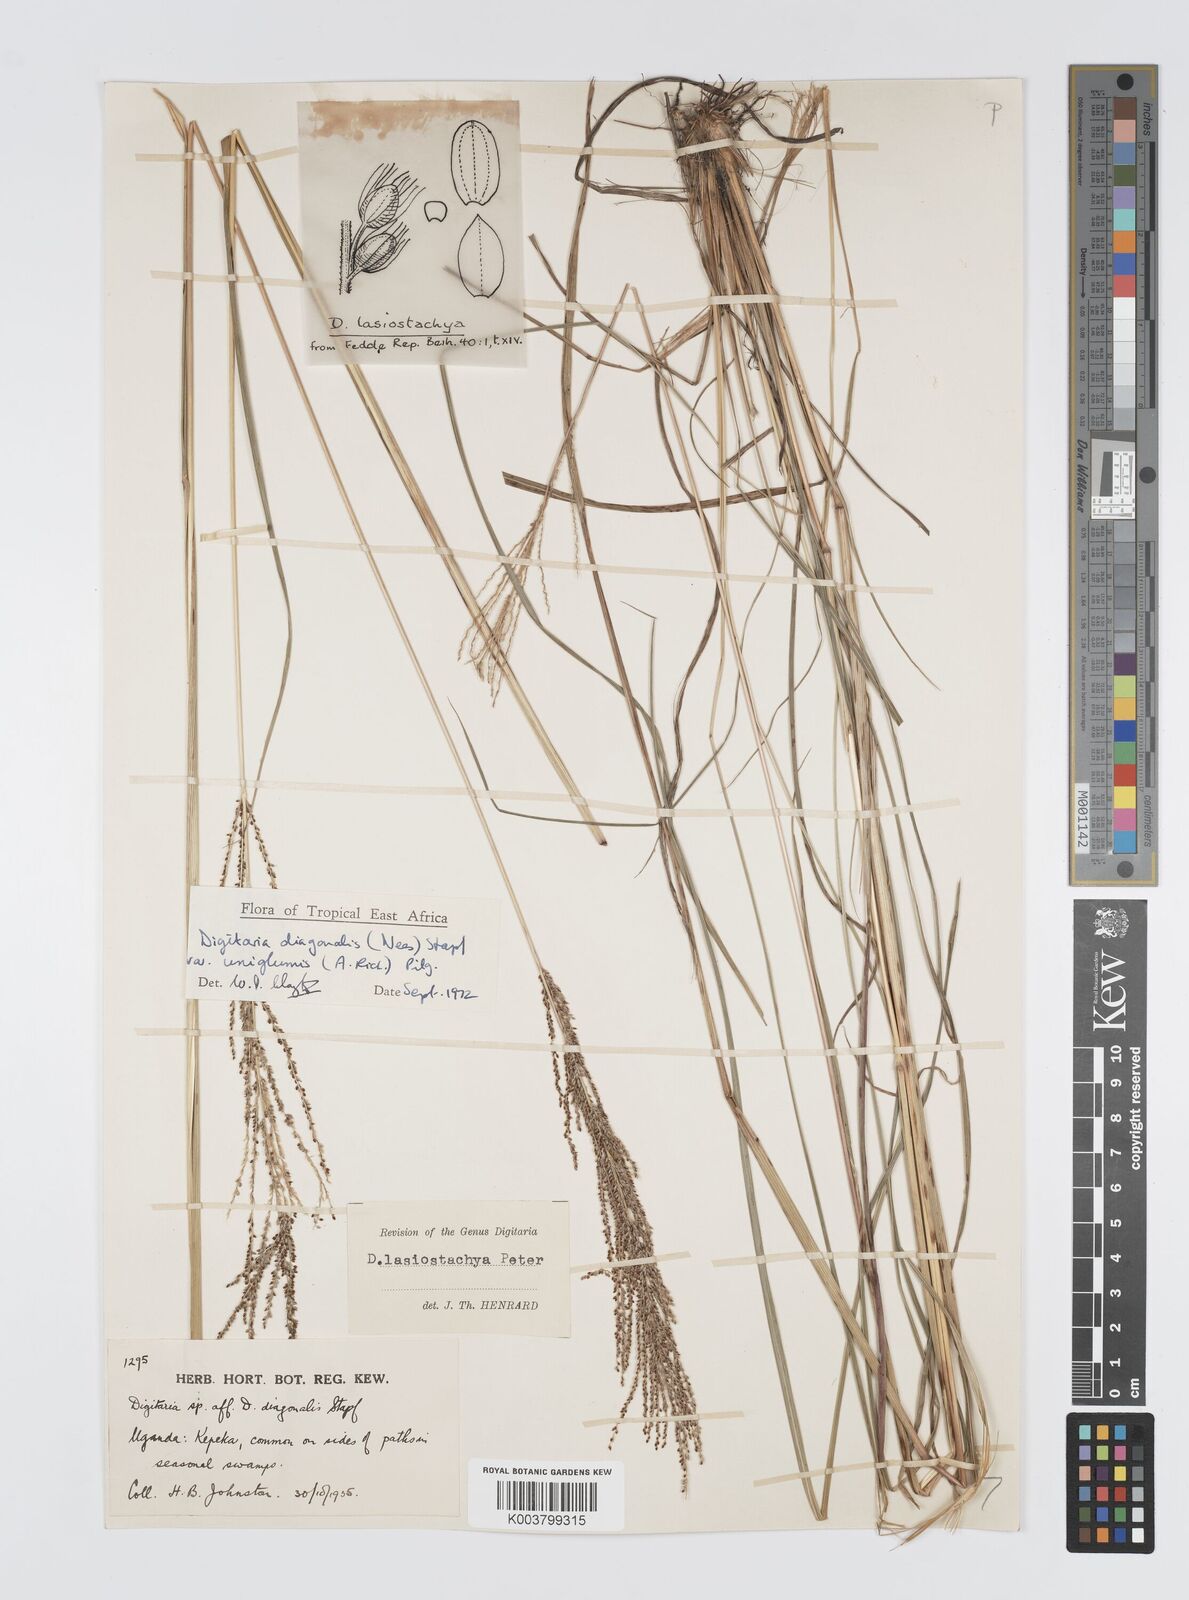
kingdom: Plantae
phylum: Tracheophyta
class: Liliopsida
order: Poales
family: Poaceae
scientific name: Poaceae
